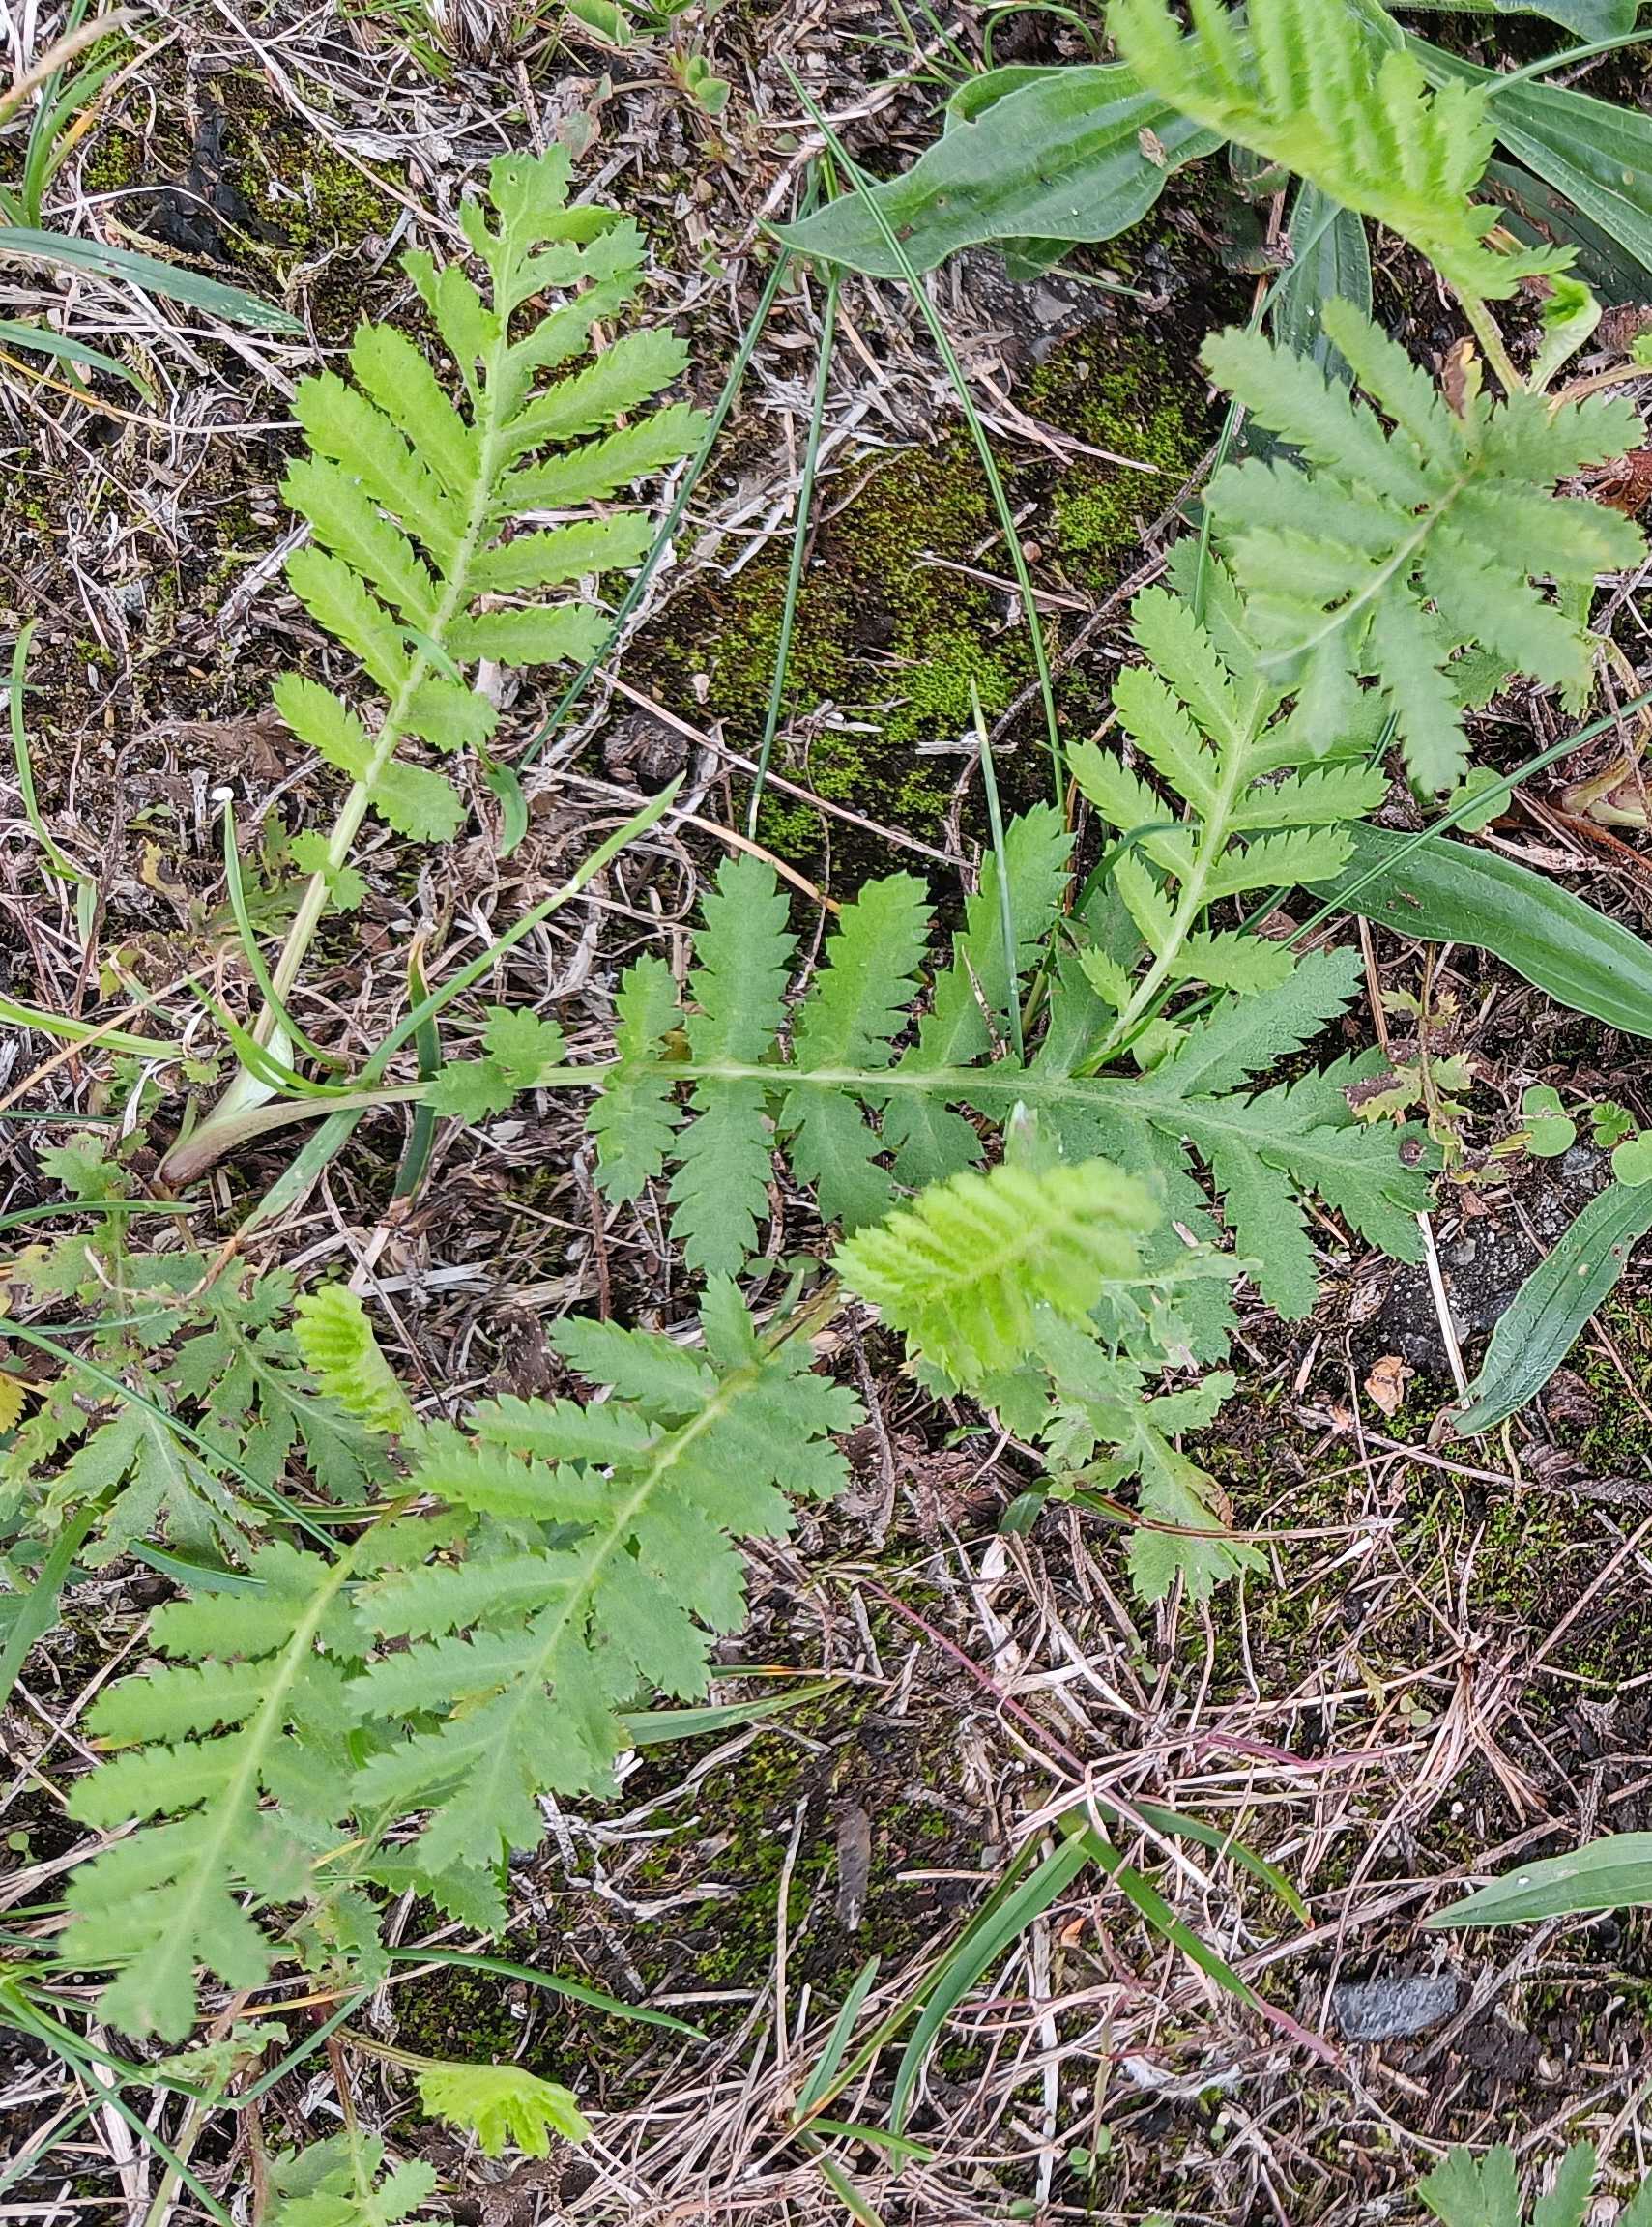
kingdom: Plantae
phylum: Tracheophyta
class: Magnoliopsida
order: Asterales
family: Asteraceae
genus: Tanacetum
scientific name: Tanacetum vulgare
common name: Rejnfan
